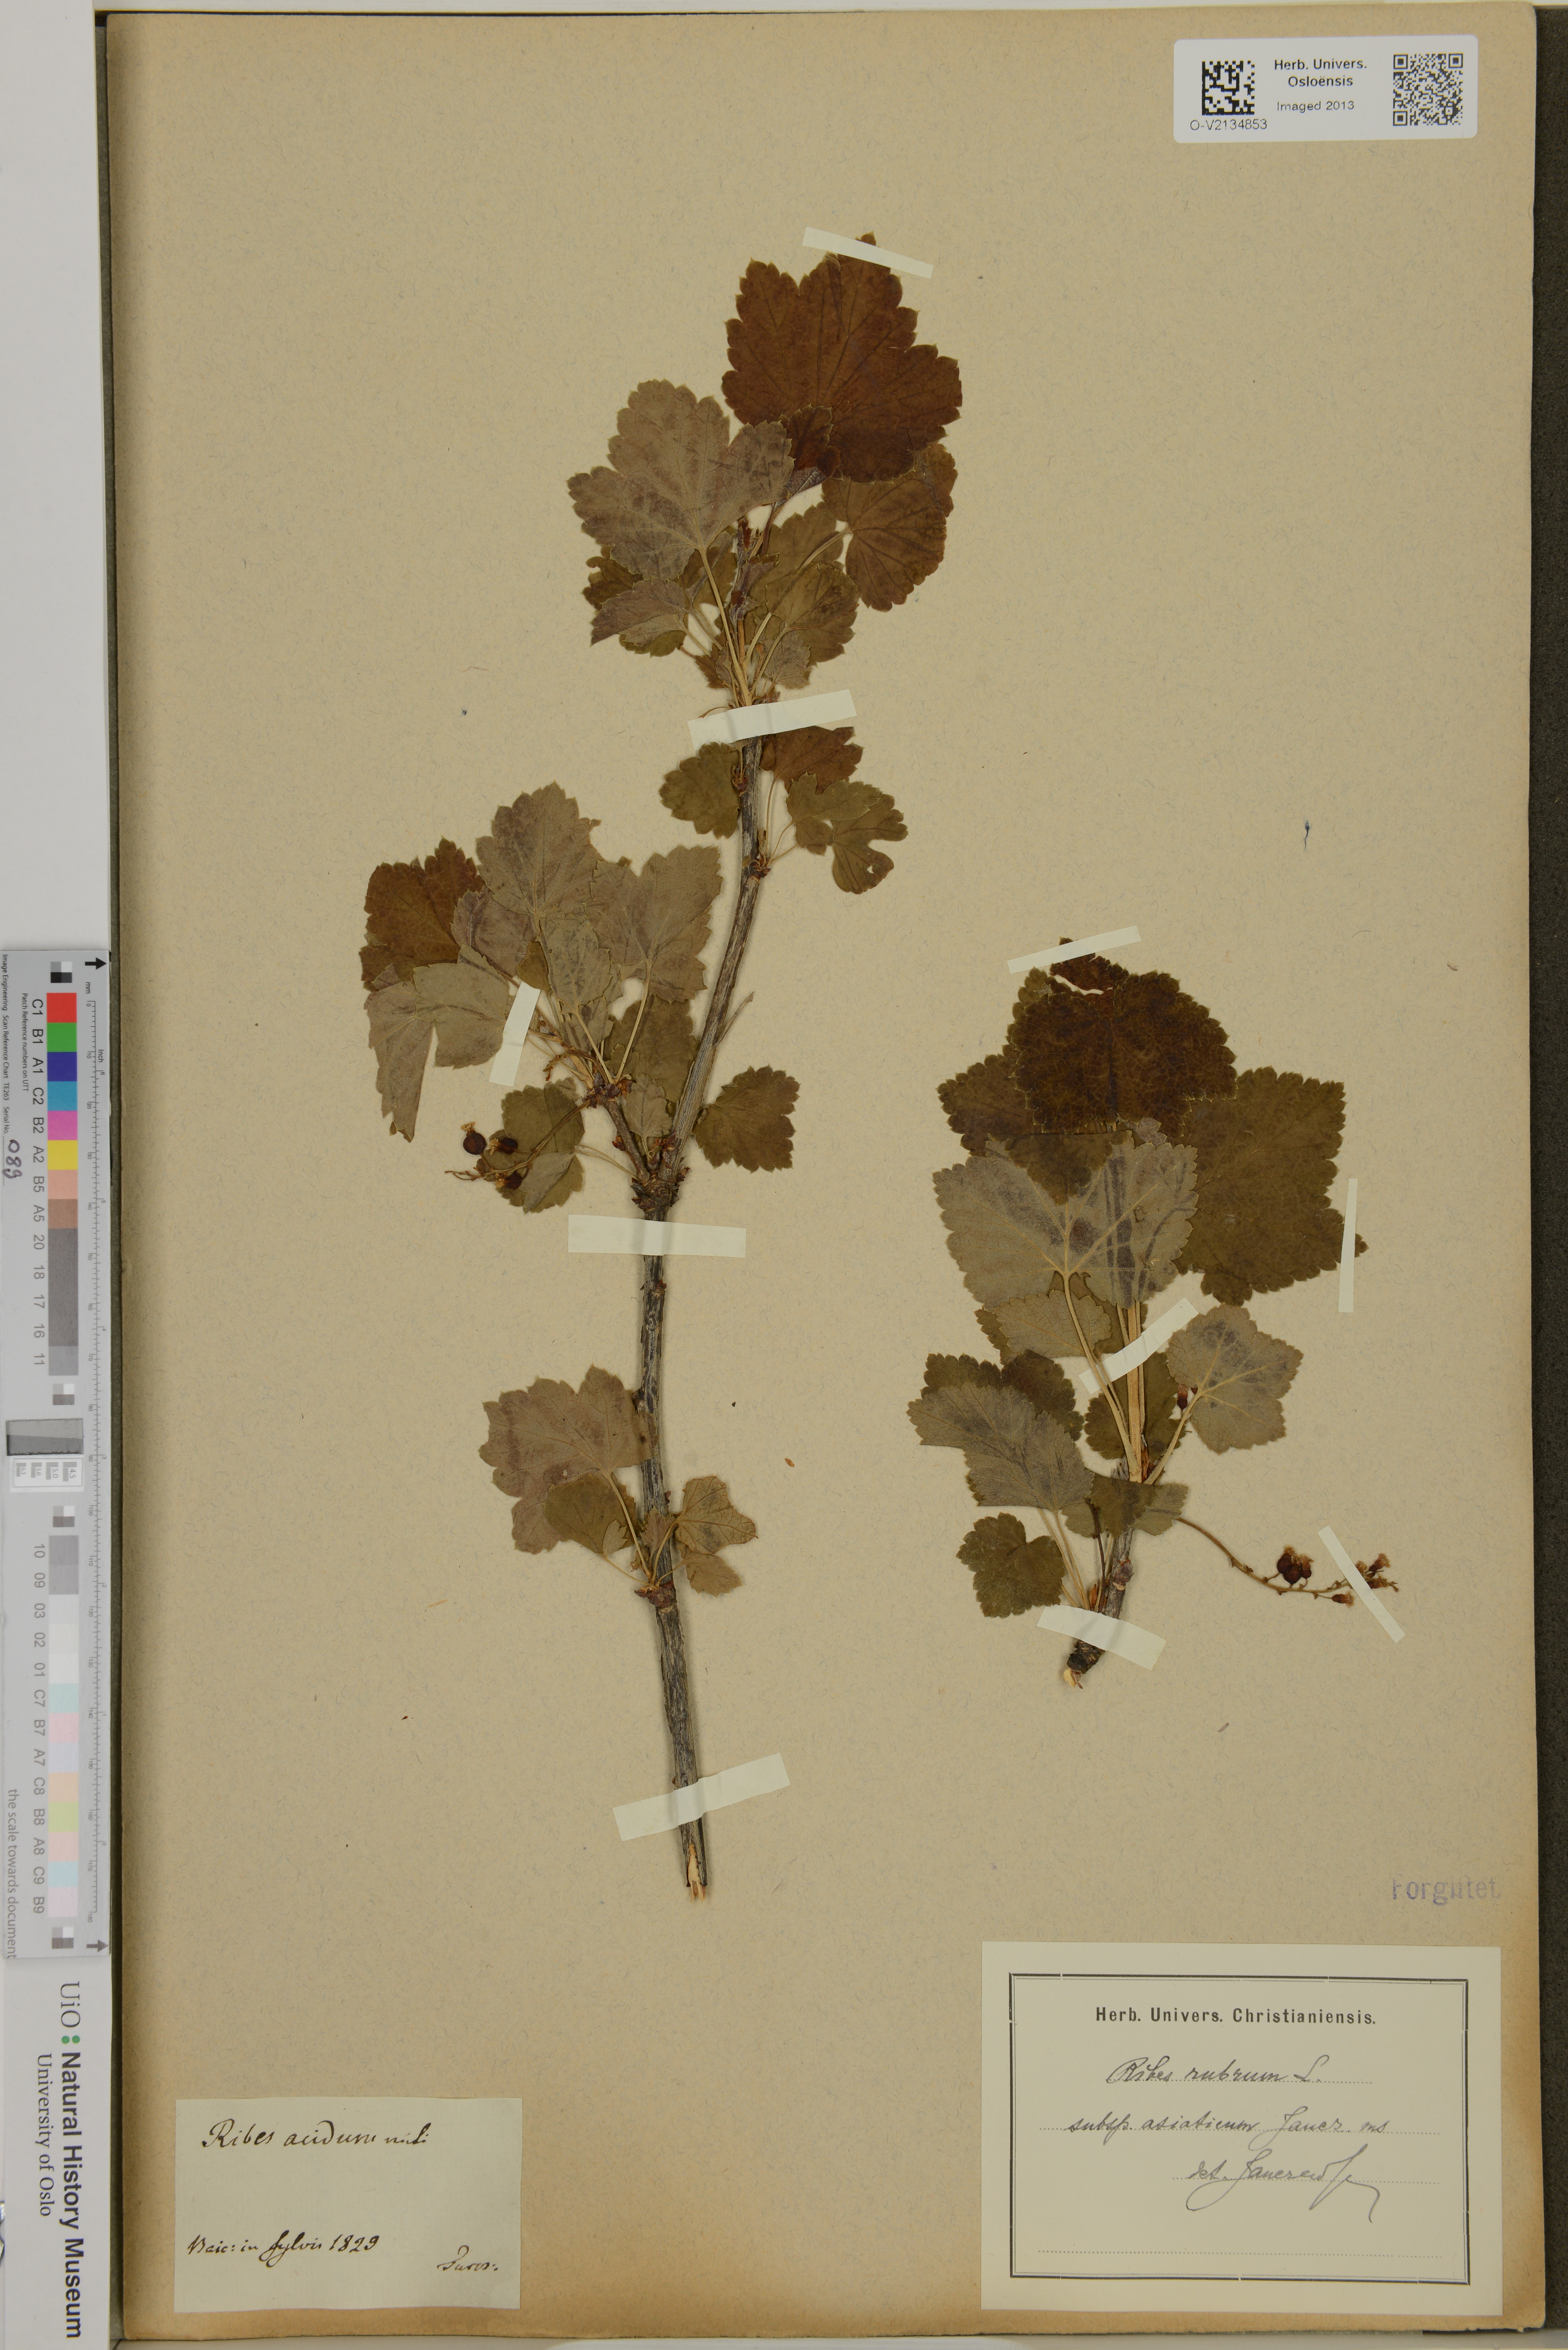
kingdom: Plantae
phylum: Tracheophyta
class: Magnoliopsida
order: Saxifragales
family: Grossulariaceae
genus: Ribes
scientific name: Ribes rubrum
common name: Red currant
